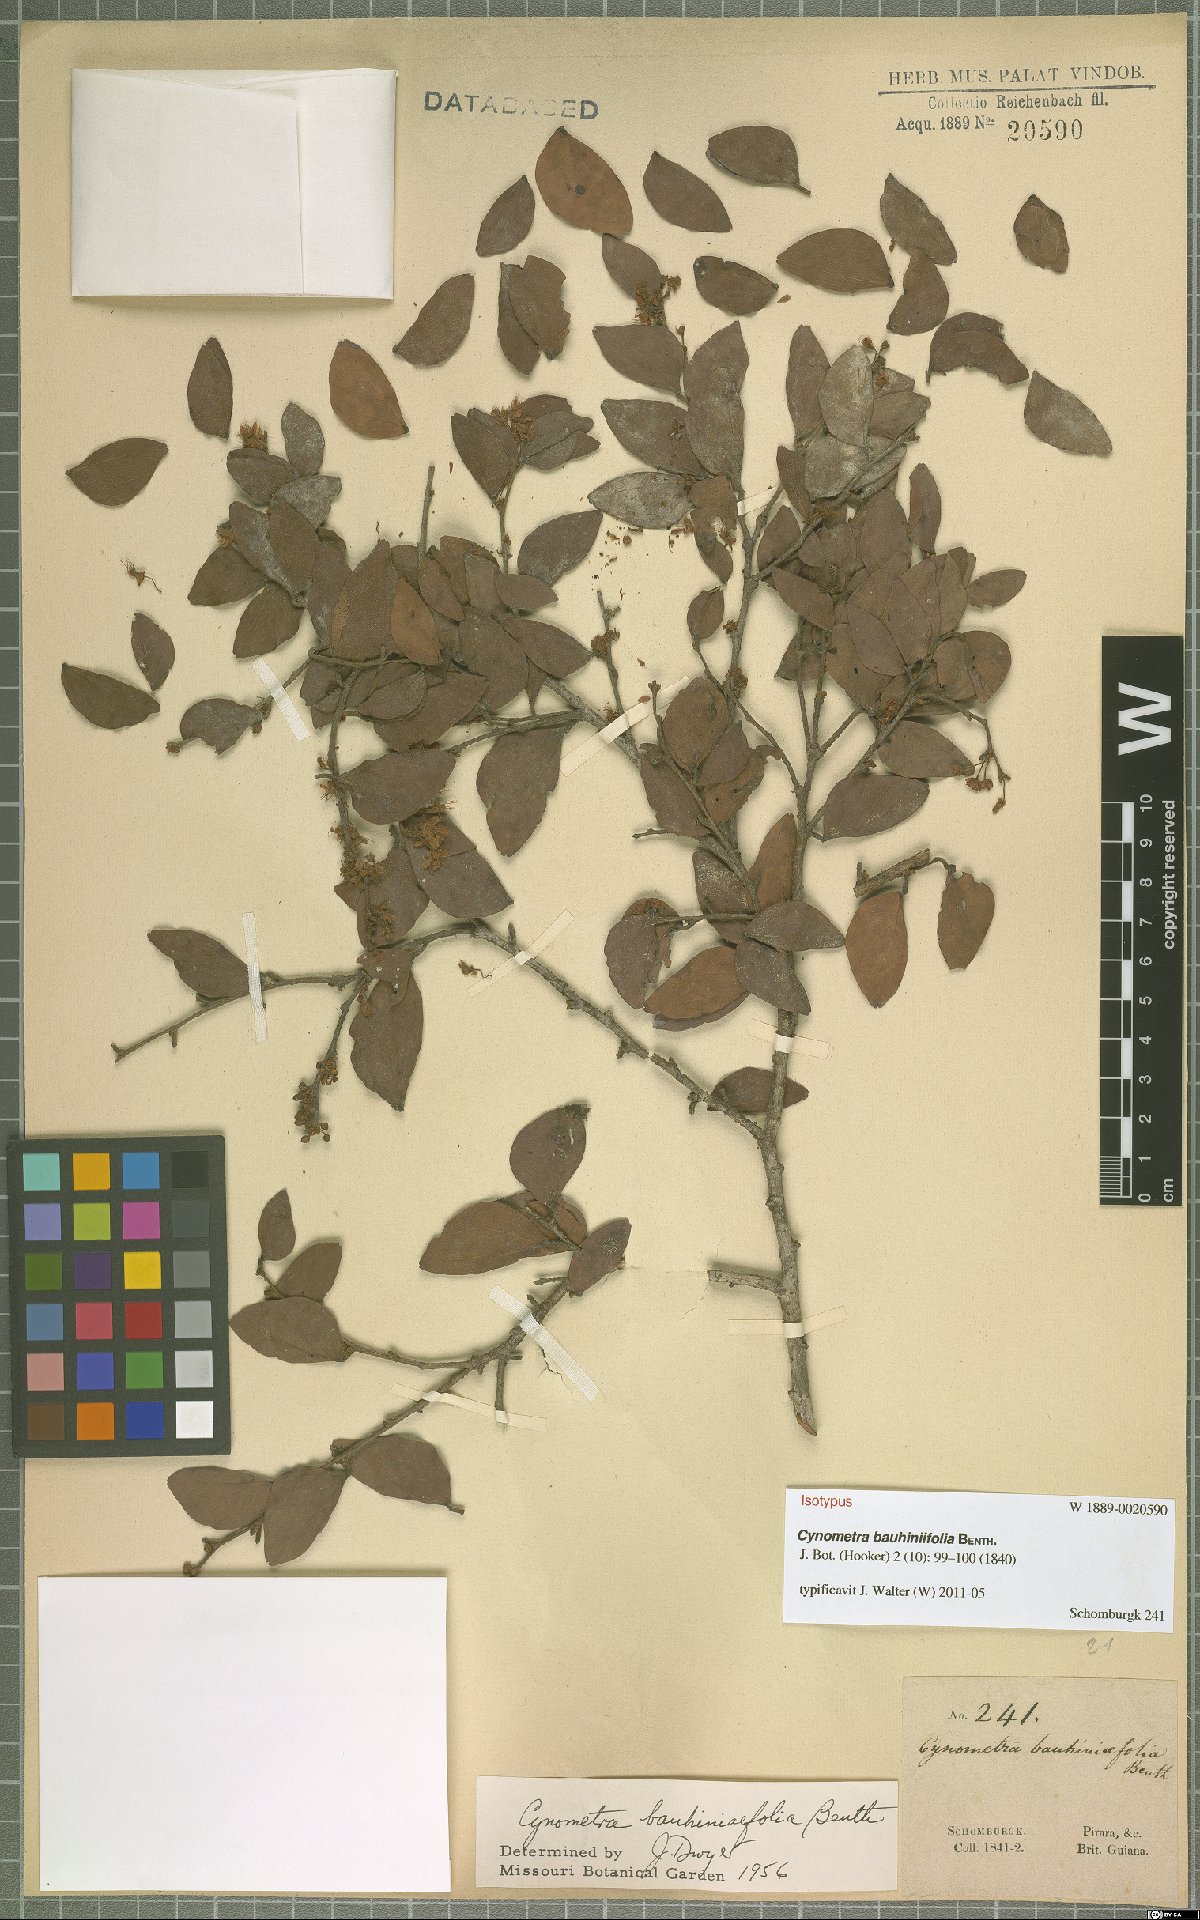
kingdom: Plantae
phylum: Tracheophyta
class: Magnoliopsida
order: Fabales
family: Fabaceae
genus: Cynometra
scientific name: Cynometra bauhiniifolia
